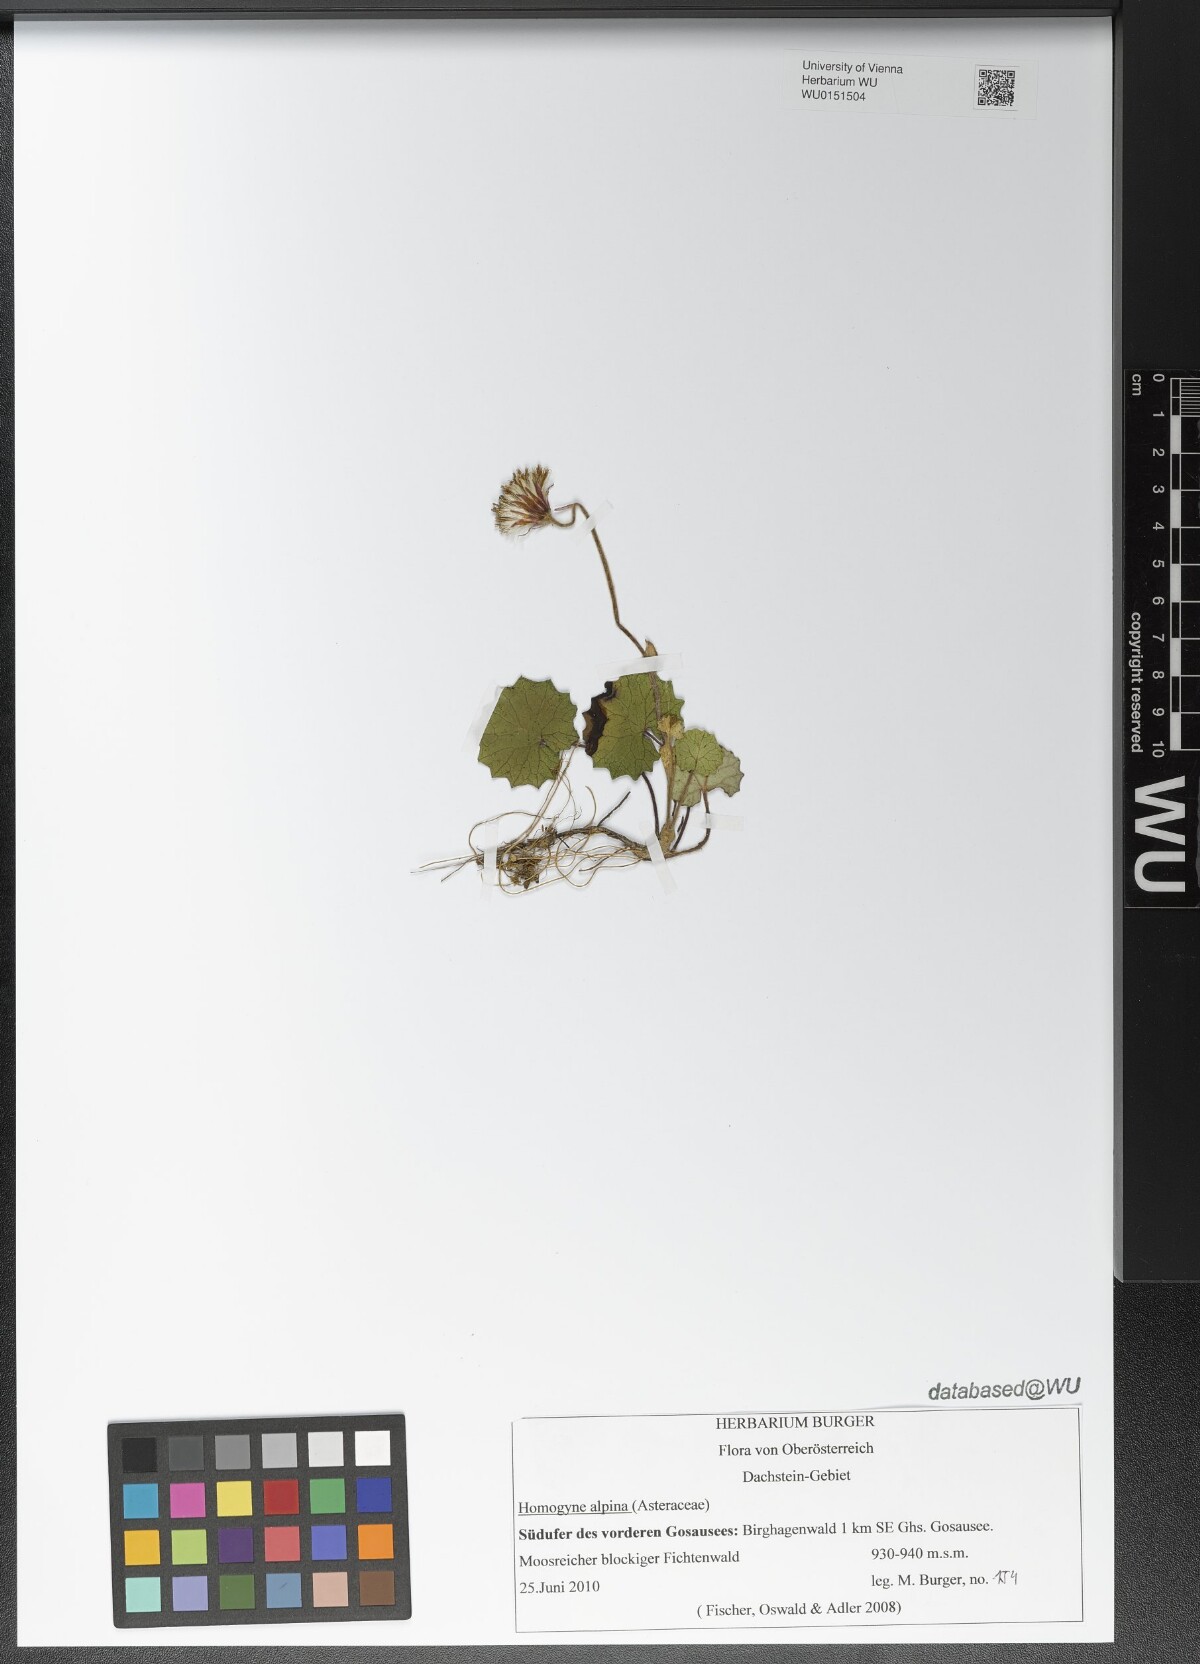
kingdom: Plantae
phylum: Tracheophyta
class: Magnoliopsida
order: Asterales
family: Asteraceae
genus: Homogyne
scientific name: Homogyne alpina
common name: Purple colt's-foot
